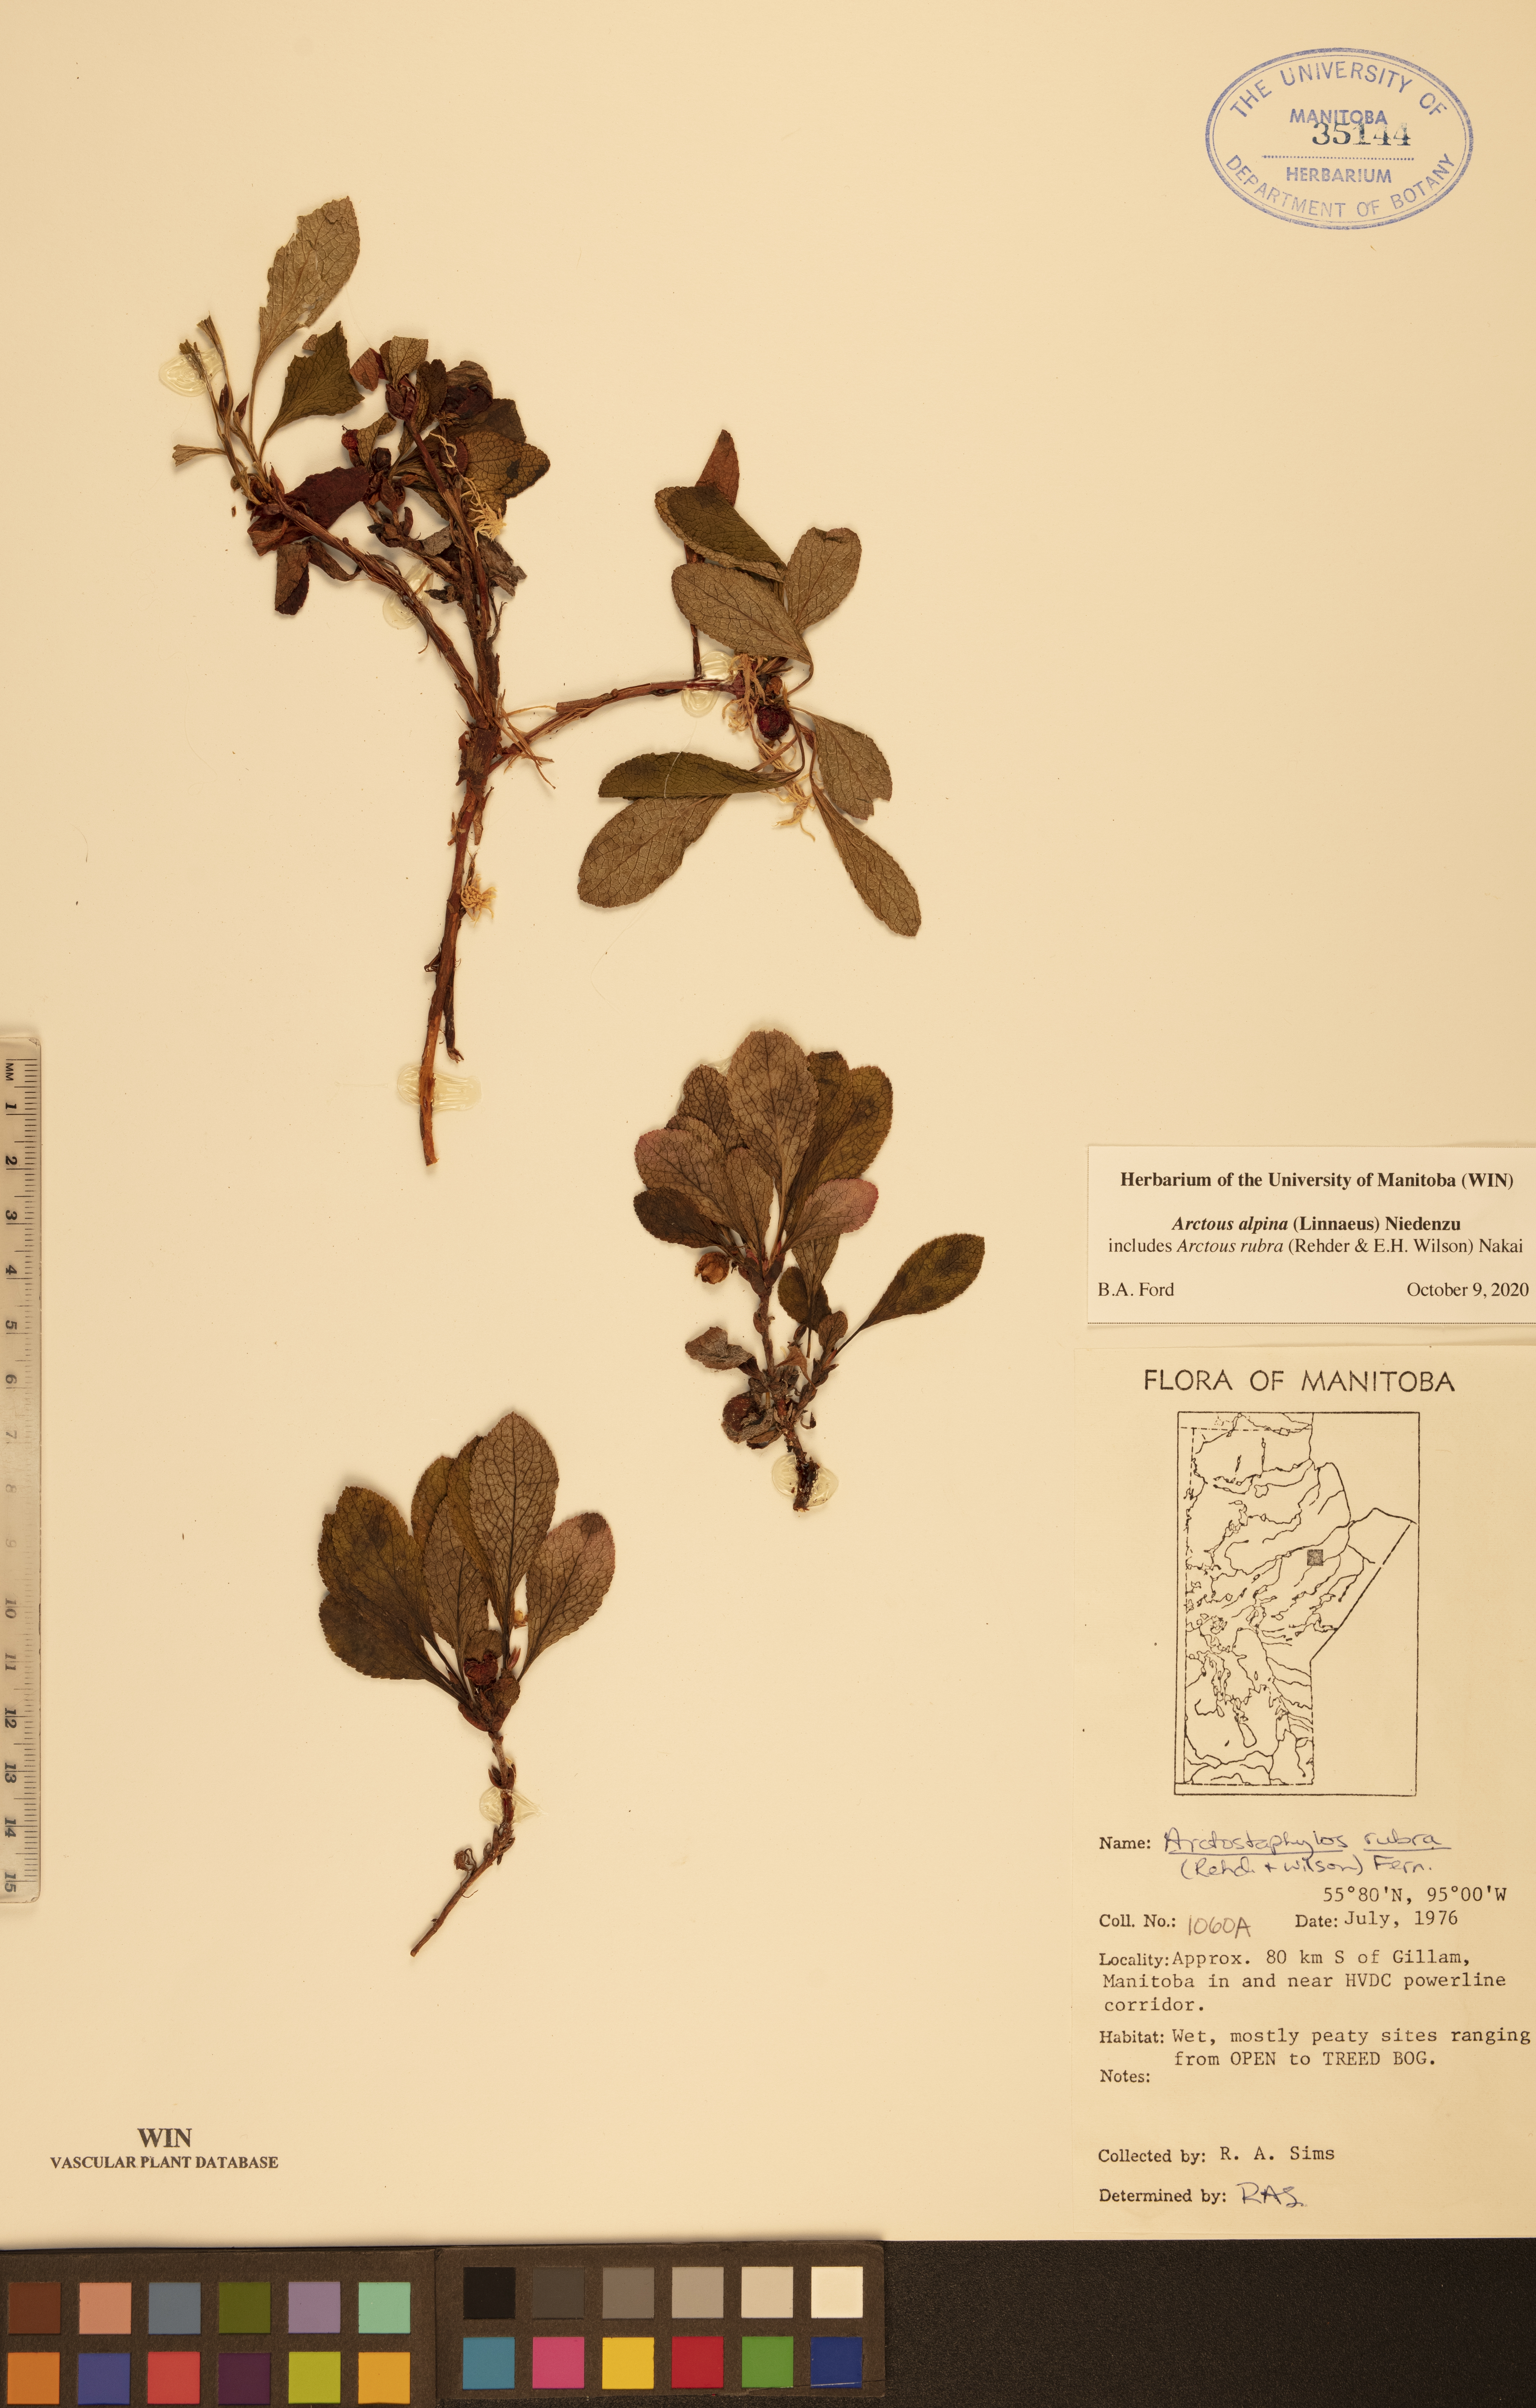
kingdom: Plantae
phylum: Tracheophyta
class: Magnoliopsida
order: Ericales
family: Ericaceae
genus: Arctostaphylos
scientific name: Arctostaphylos alpinus
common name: Alpine bearberry
